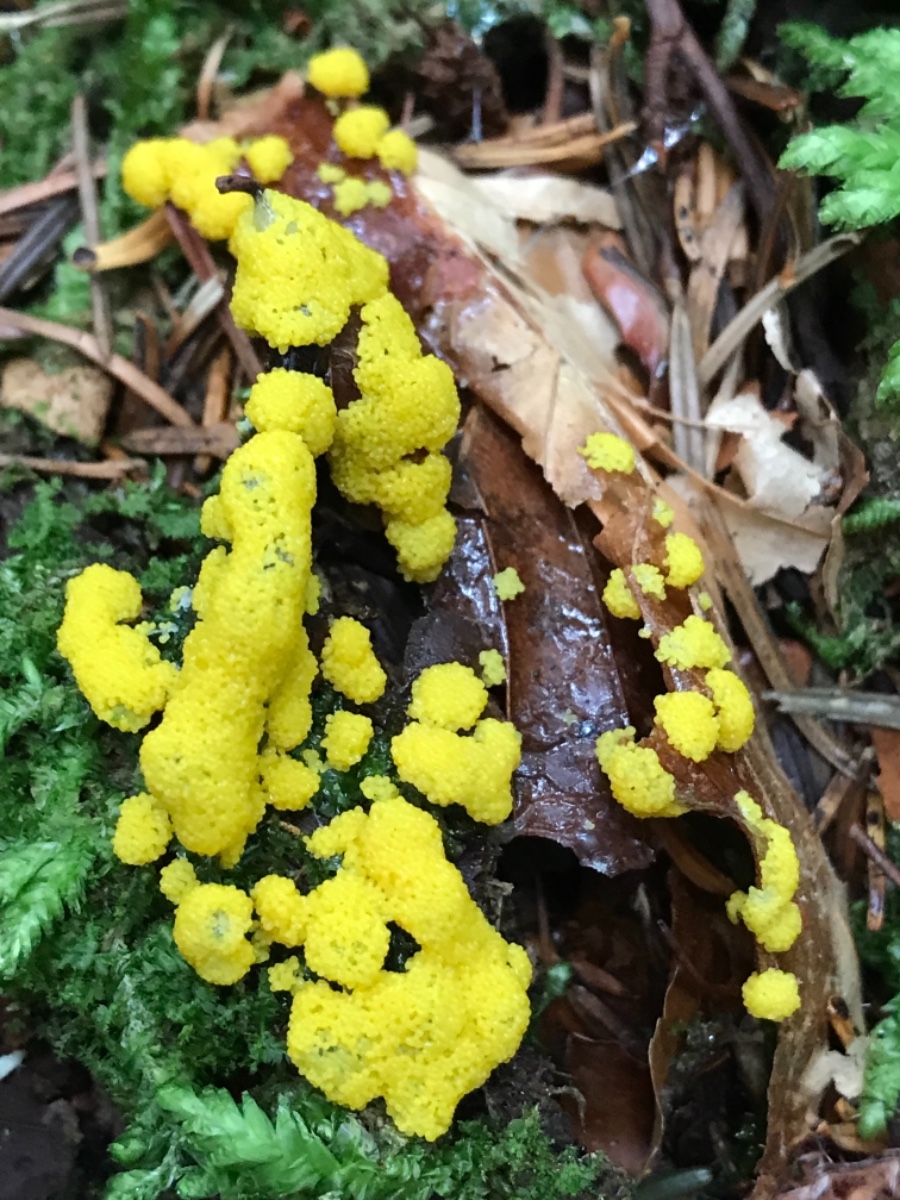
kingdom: Protozoa
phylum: Mycetozoa
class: Myxomycetes
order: Physarales
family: Physaraceae
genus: Fuligo
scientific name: Fuligo septica
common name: gul troldsmør
